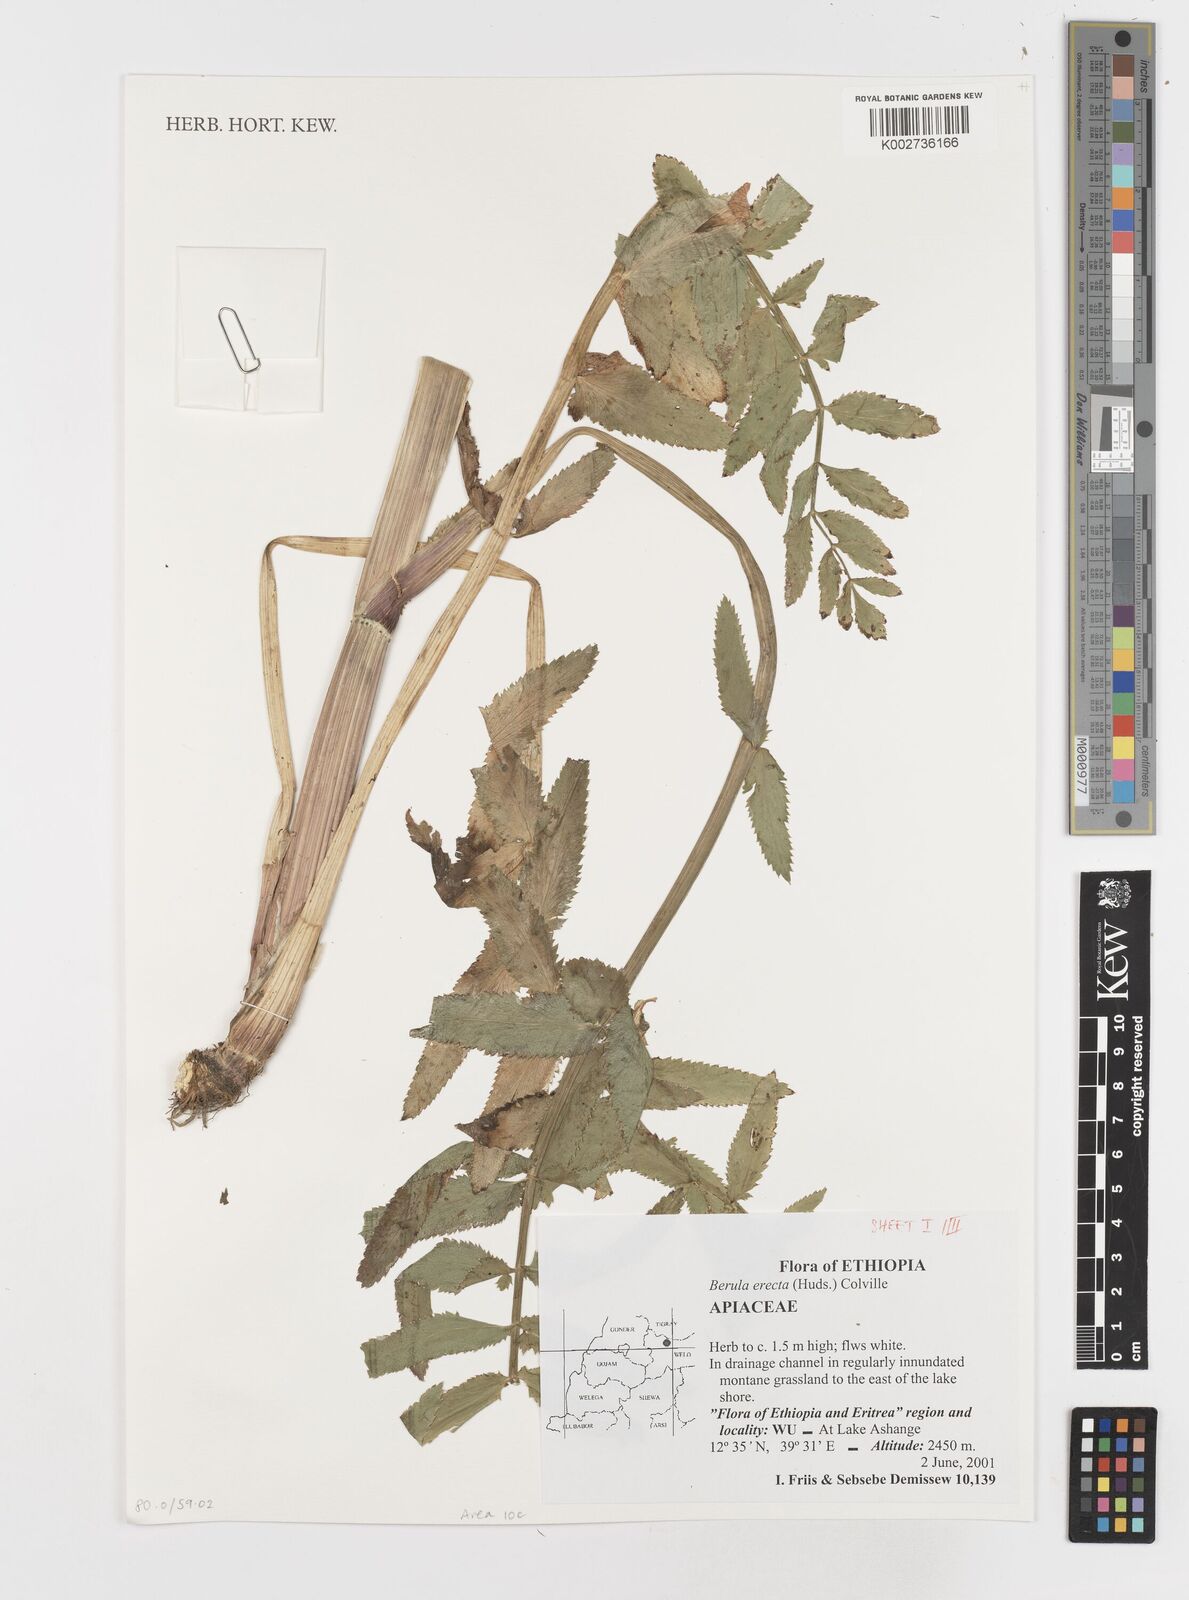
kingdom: Plantae
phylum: Tracheophyta
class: Magnoliopsida
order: Apiales
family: Apiaceae
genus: Berula
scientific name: Berula erecta
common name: Lesser water-parsnip
